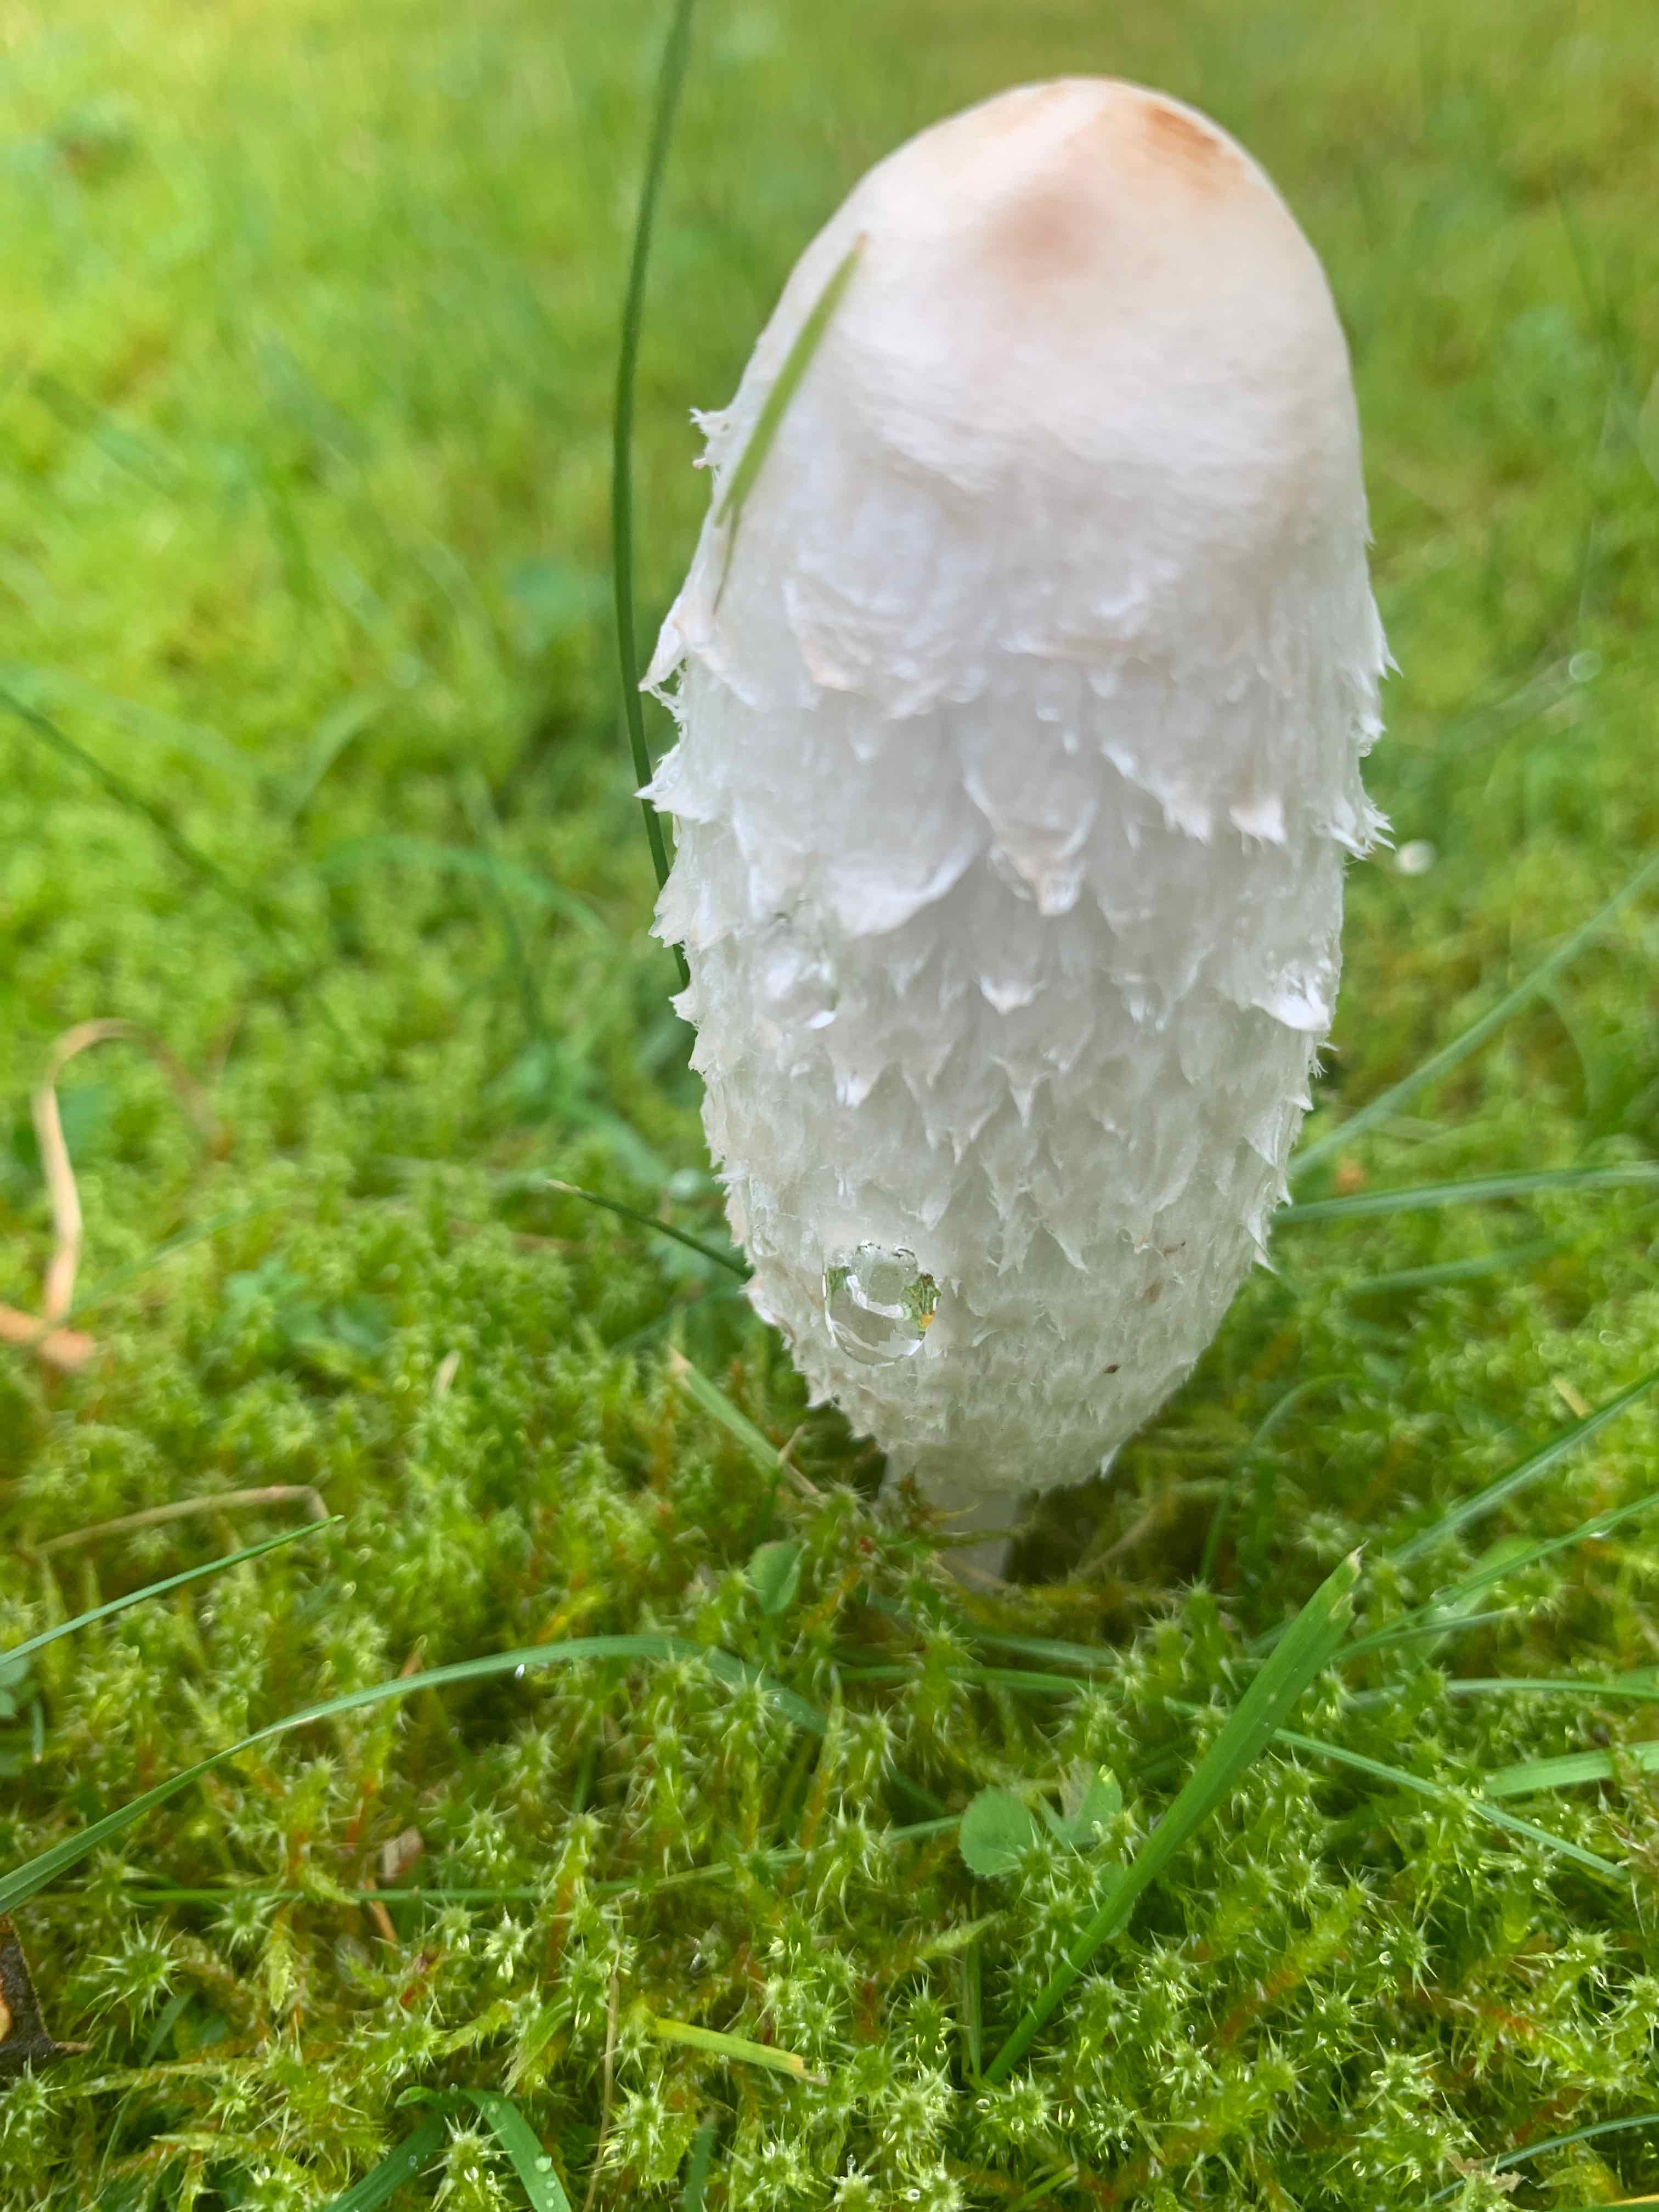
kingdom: Fungi
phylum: Basidiomycota
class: Agaricomycetes
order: Agaricales
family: Agaricaceae
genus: Coprinus
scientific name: Coprinus comatus
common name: stor parykhat
